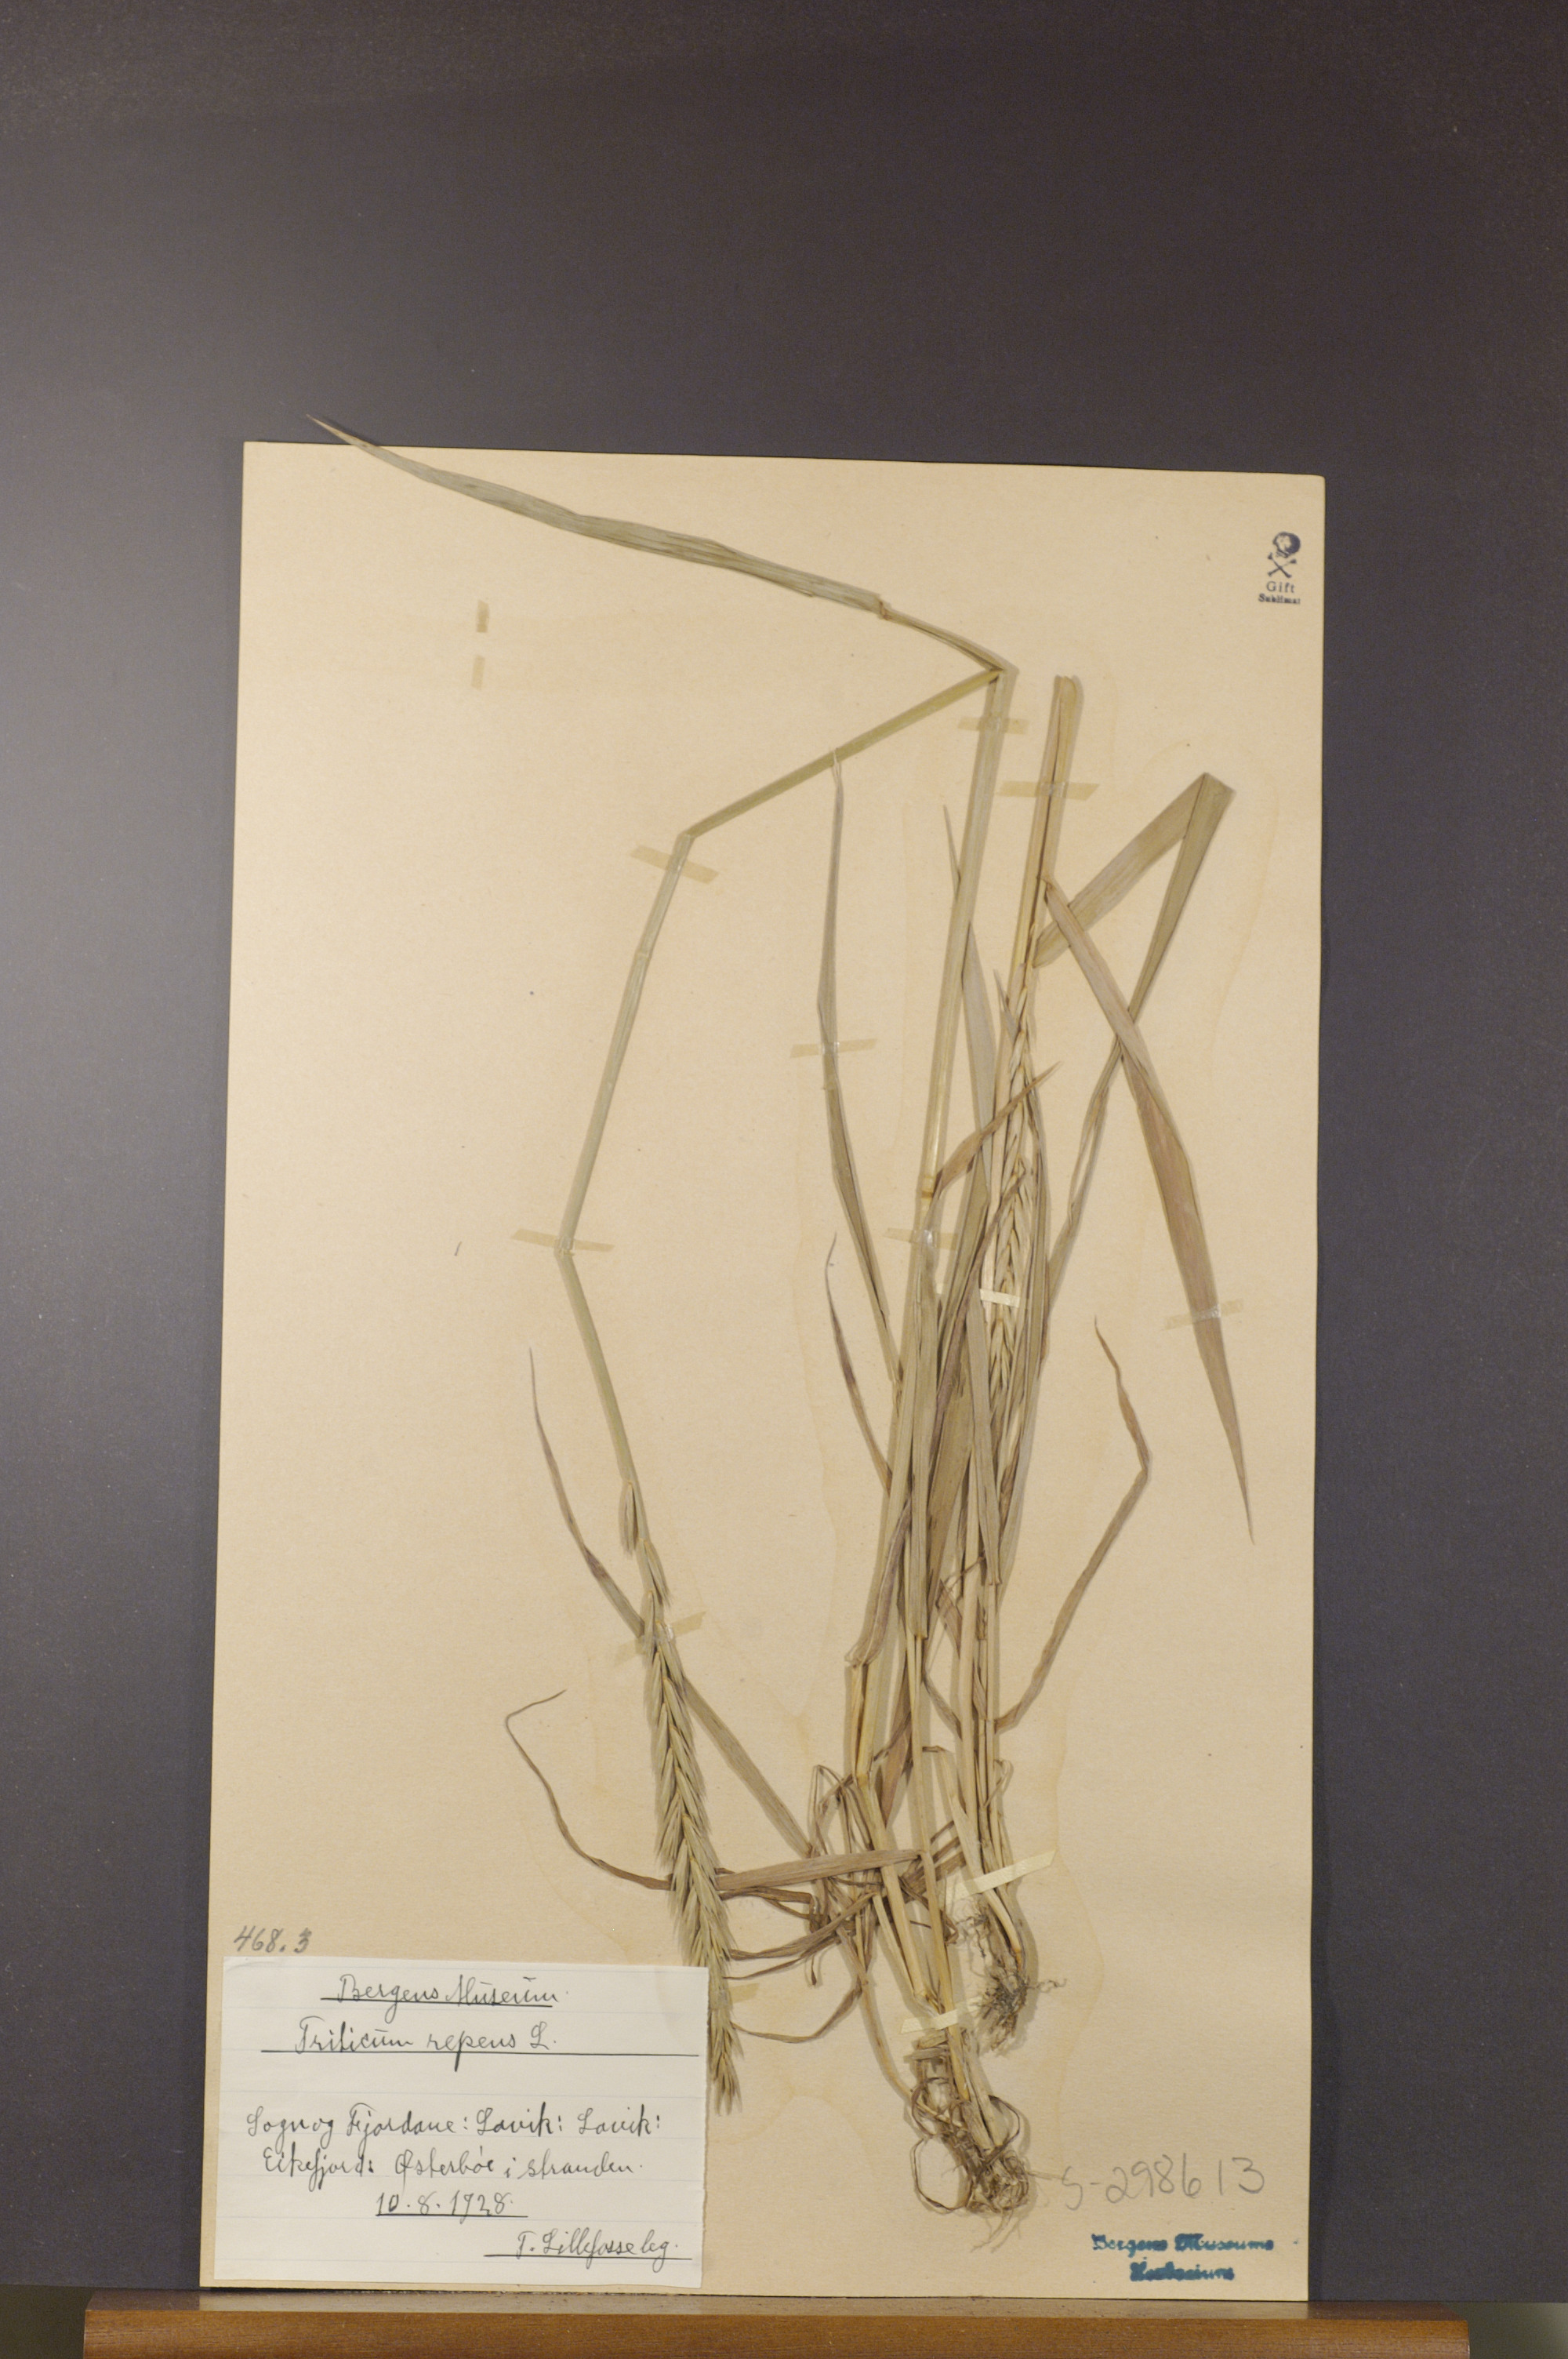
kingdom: Plantae
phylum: Tracheophyta
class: Liliopsida
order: Poales
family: Poaceae
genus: Elymus
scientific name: Elymus repens
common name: Quackgrass
